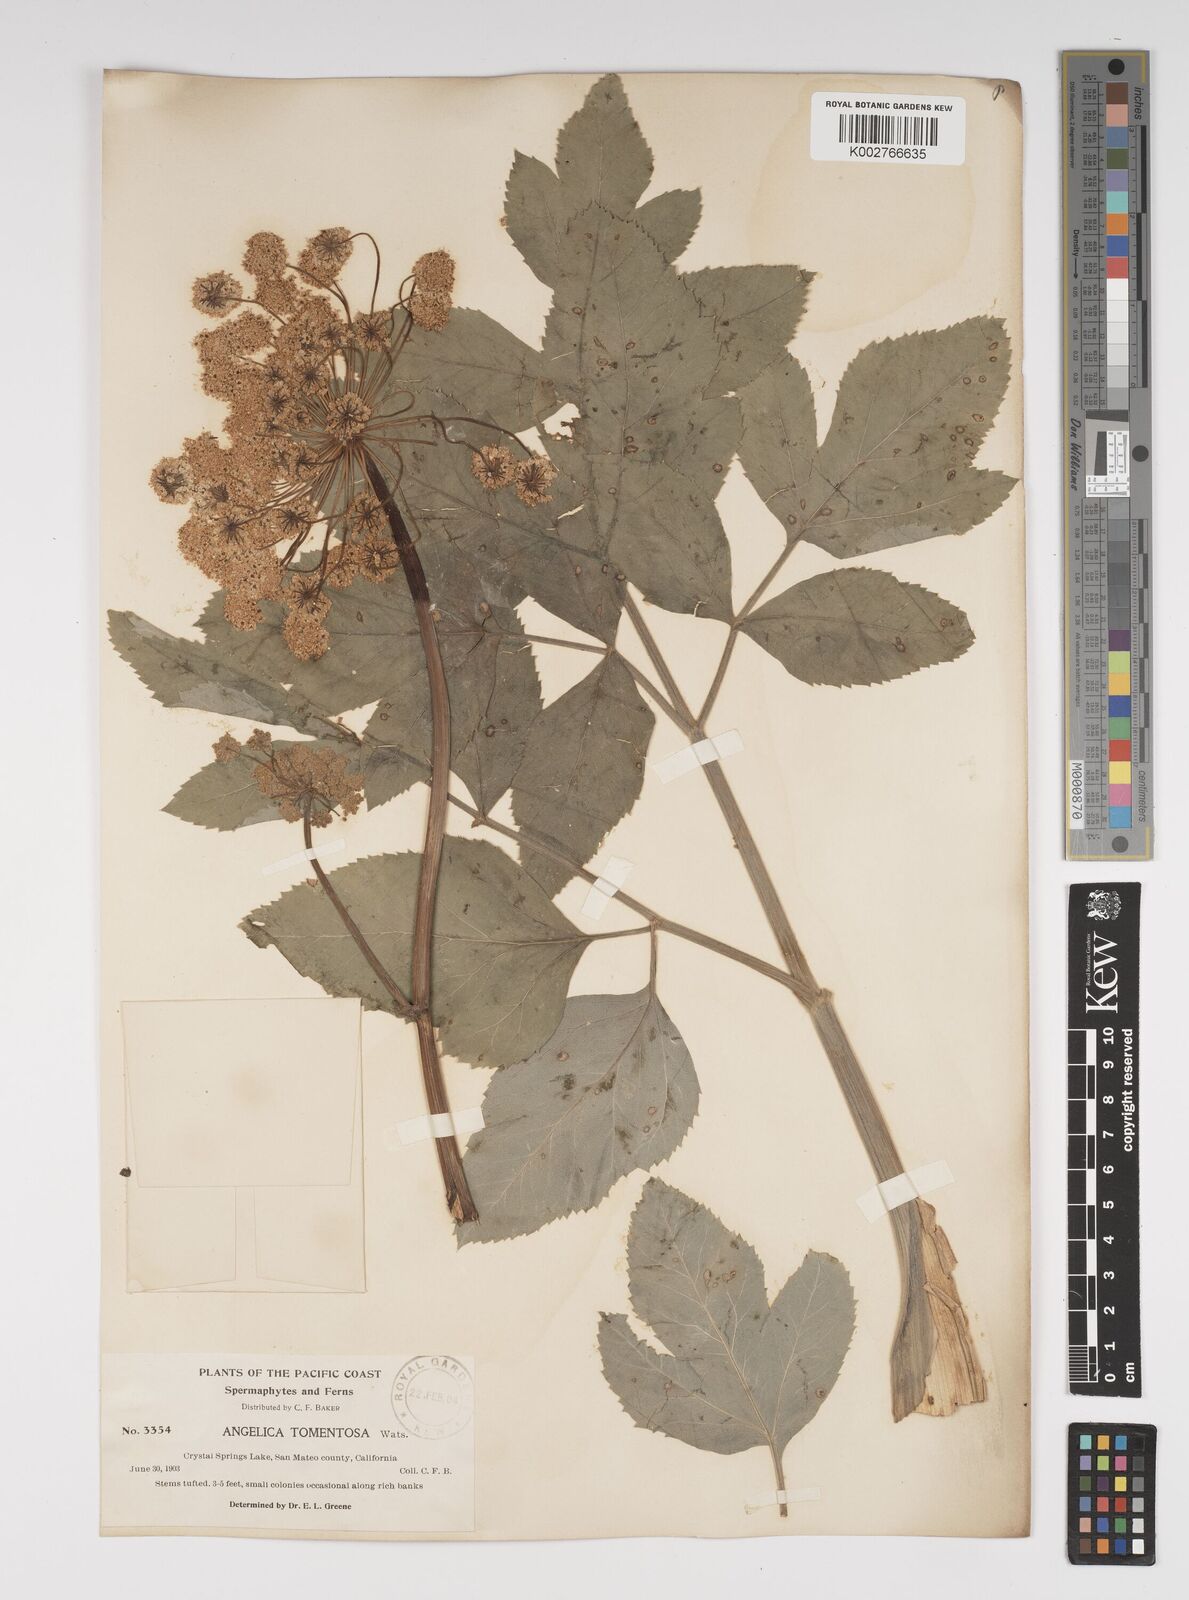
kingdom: Plantae
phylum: Tracheophyta
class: Magnoliopsida
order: Apiales
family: Apiaceae
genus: Angelica
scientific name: Angelica tomentosa
